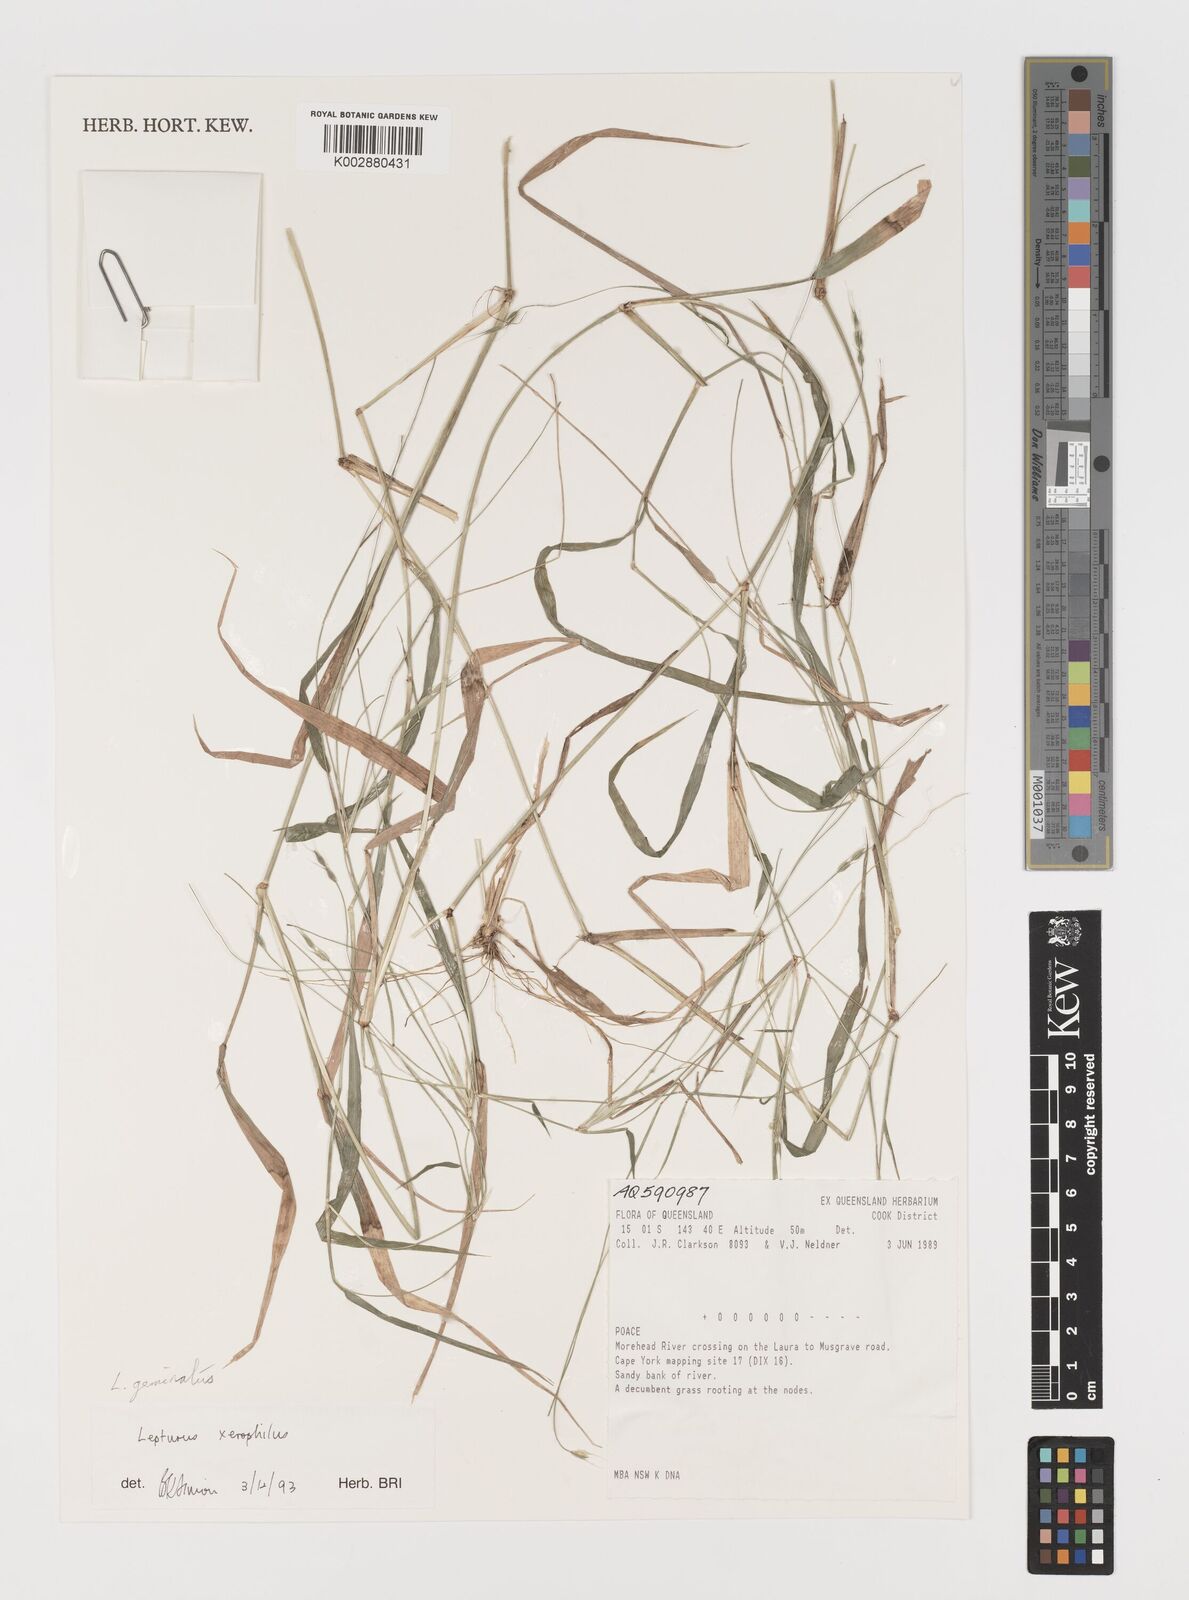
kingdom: Plantae
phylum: Tracheophyta
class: Liliopsida
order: Poales
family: Poaceae
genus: Lepturus
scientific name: Lepturus geminatus
